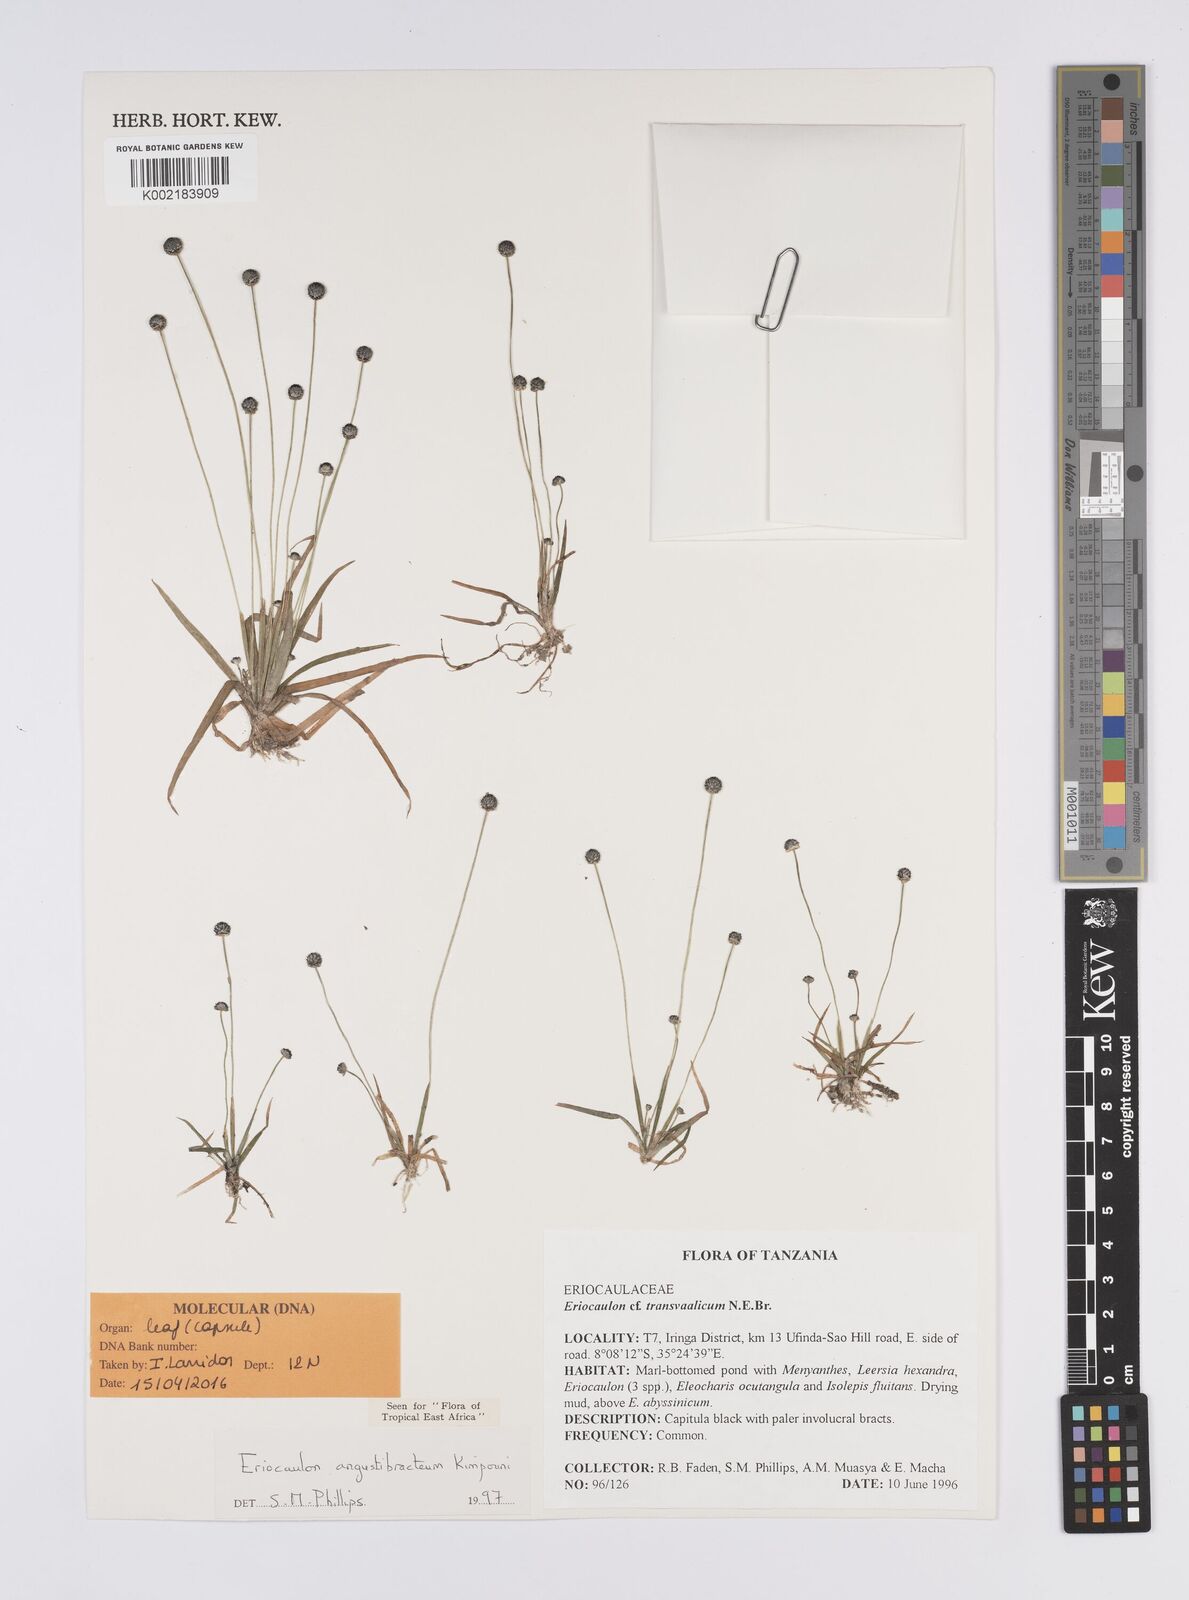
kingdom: Plantae
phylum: Tracheophyta
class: Liliopsida
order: Poales
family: Eriocaulaceae
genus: Eriocaulon
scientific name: Eriocaulon angustibracteum
